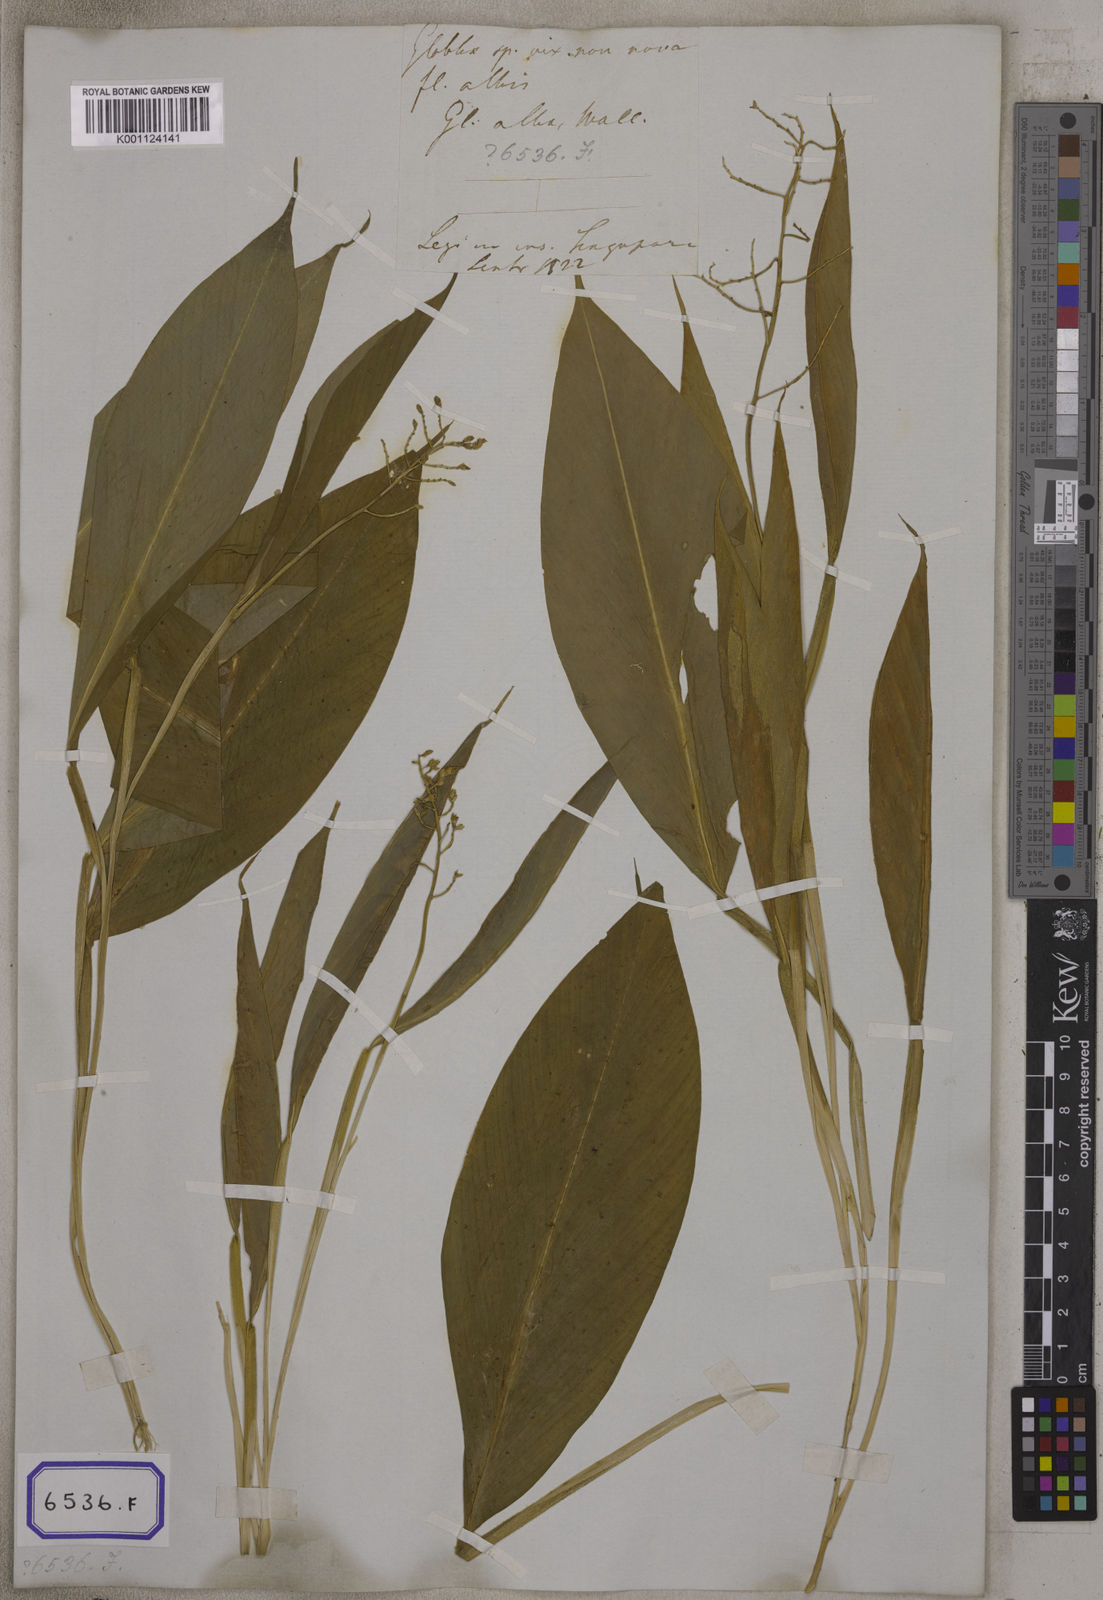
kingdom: Plantae
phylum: Tracheophyta
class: Liliopsida
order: Zingiberales
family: Zingiberaceae
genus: Globba
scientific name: Globba
